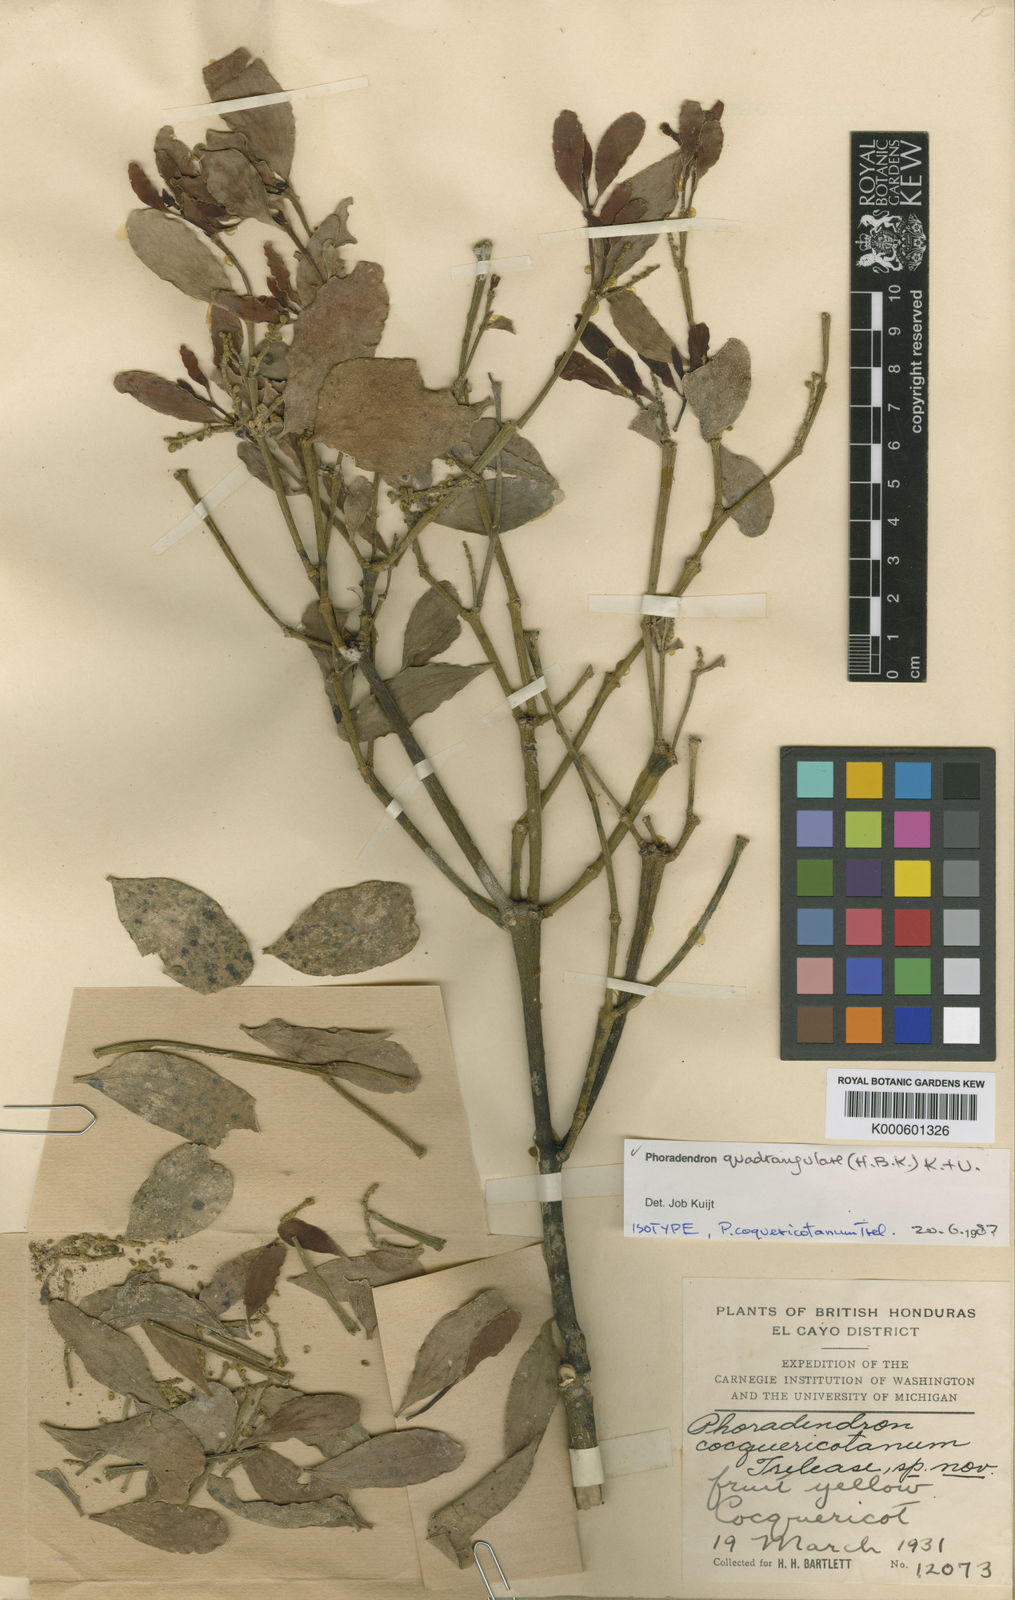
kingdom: Plantae
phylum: Tracheophyta
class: Magnoliopsida
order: Santalales
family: Viscaceae
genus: Phoradendron
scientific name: Phoradendron
